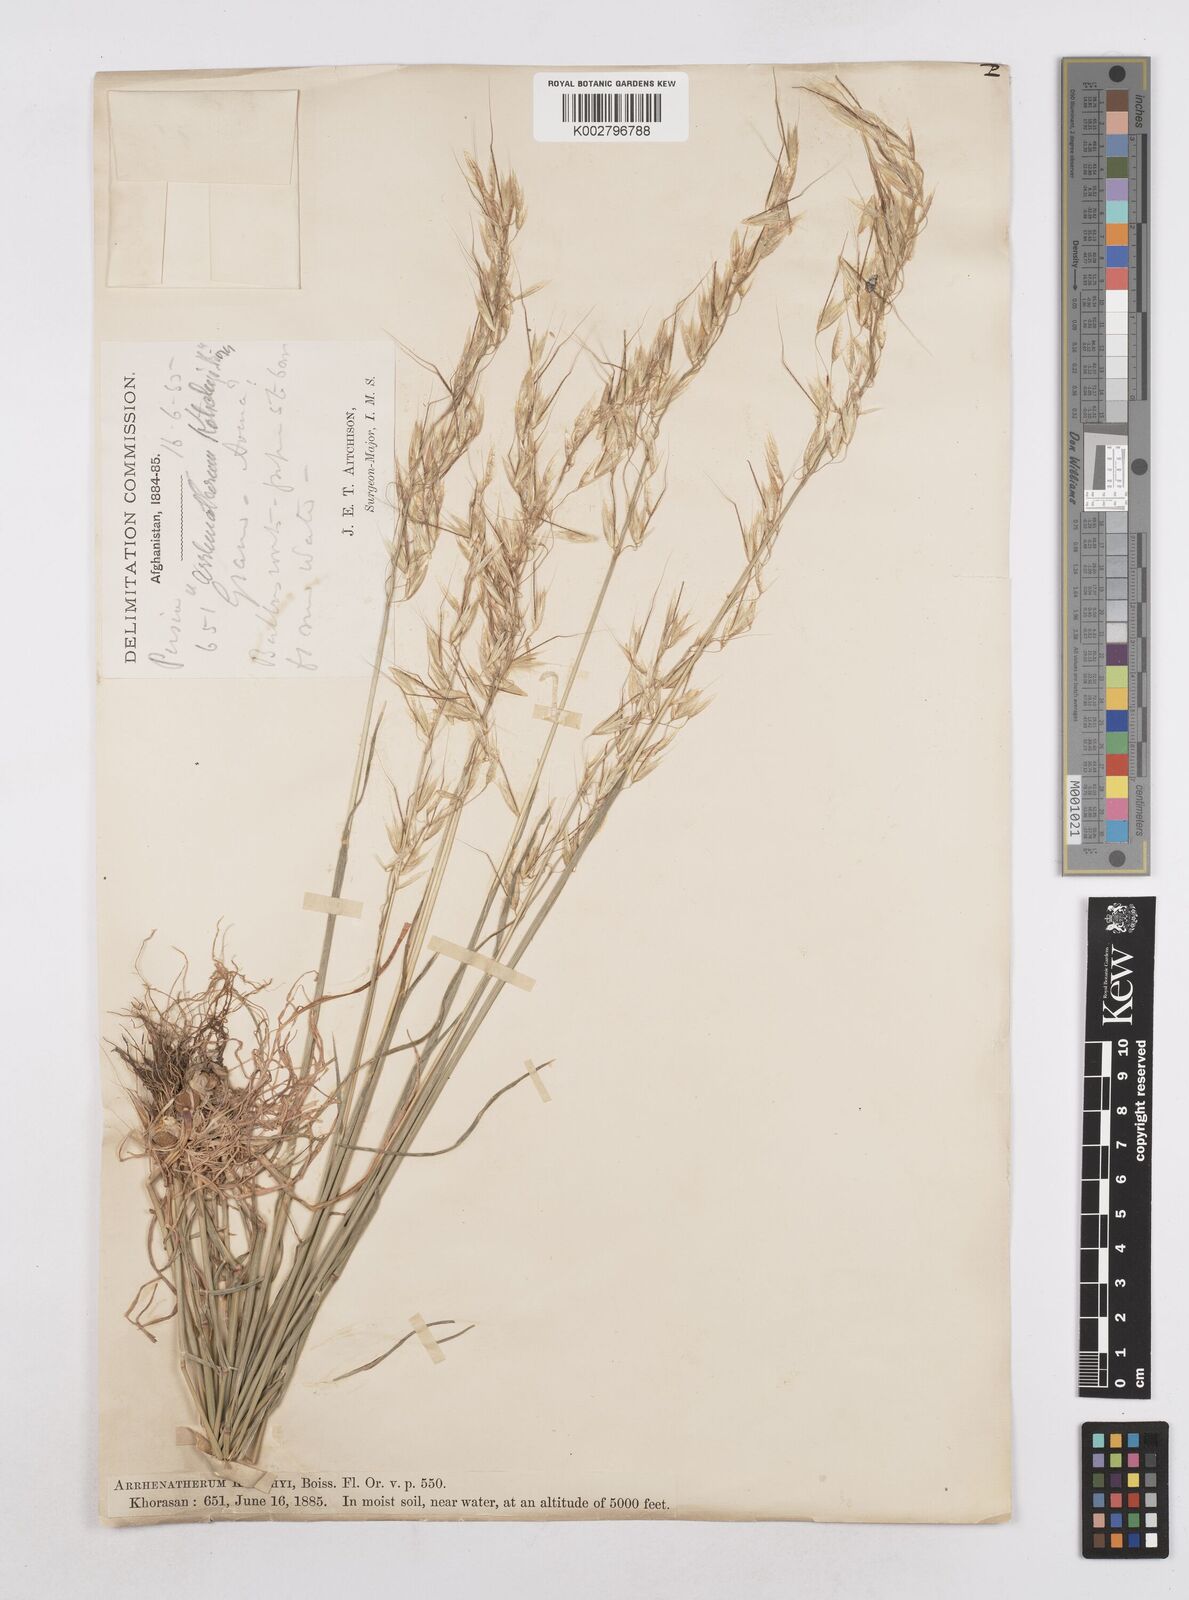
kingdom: Plantae
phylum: Tracheophyta
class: Liliopsida
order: Poales
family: Poaceae
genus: Arrhenatherum
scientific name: Arrhenatherum kotschyi
